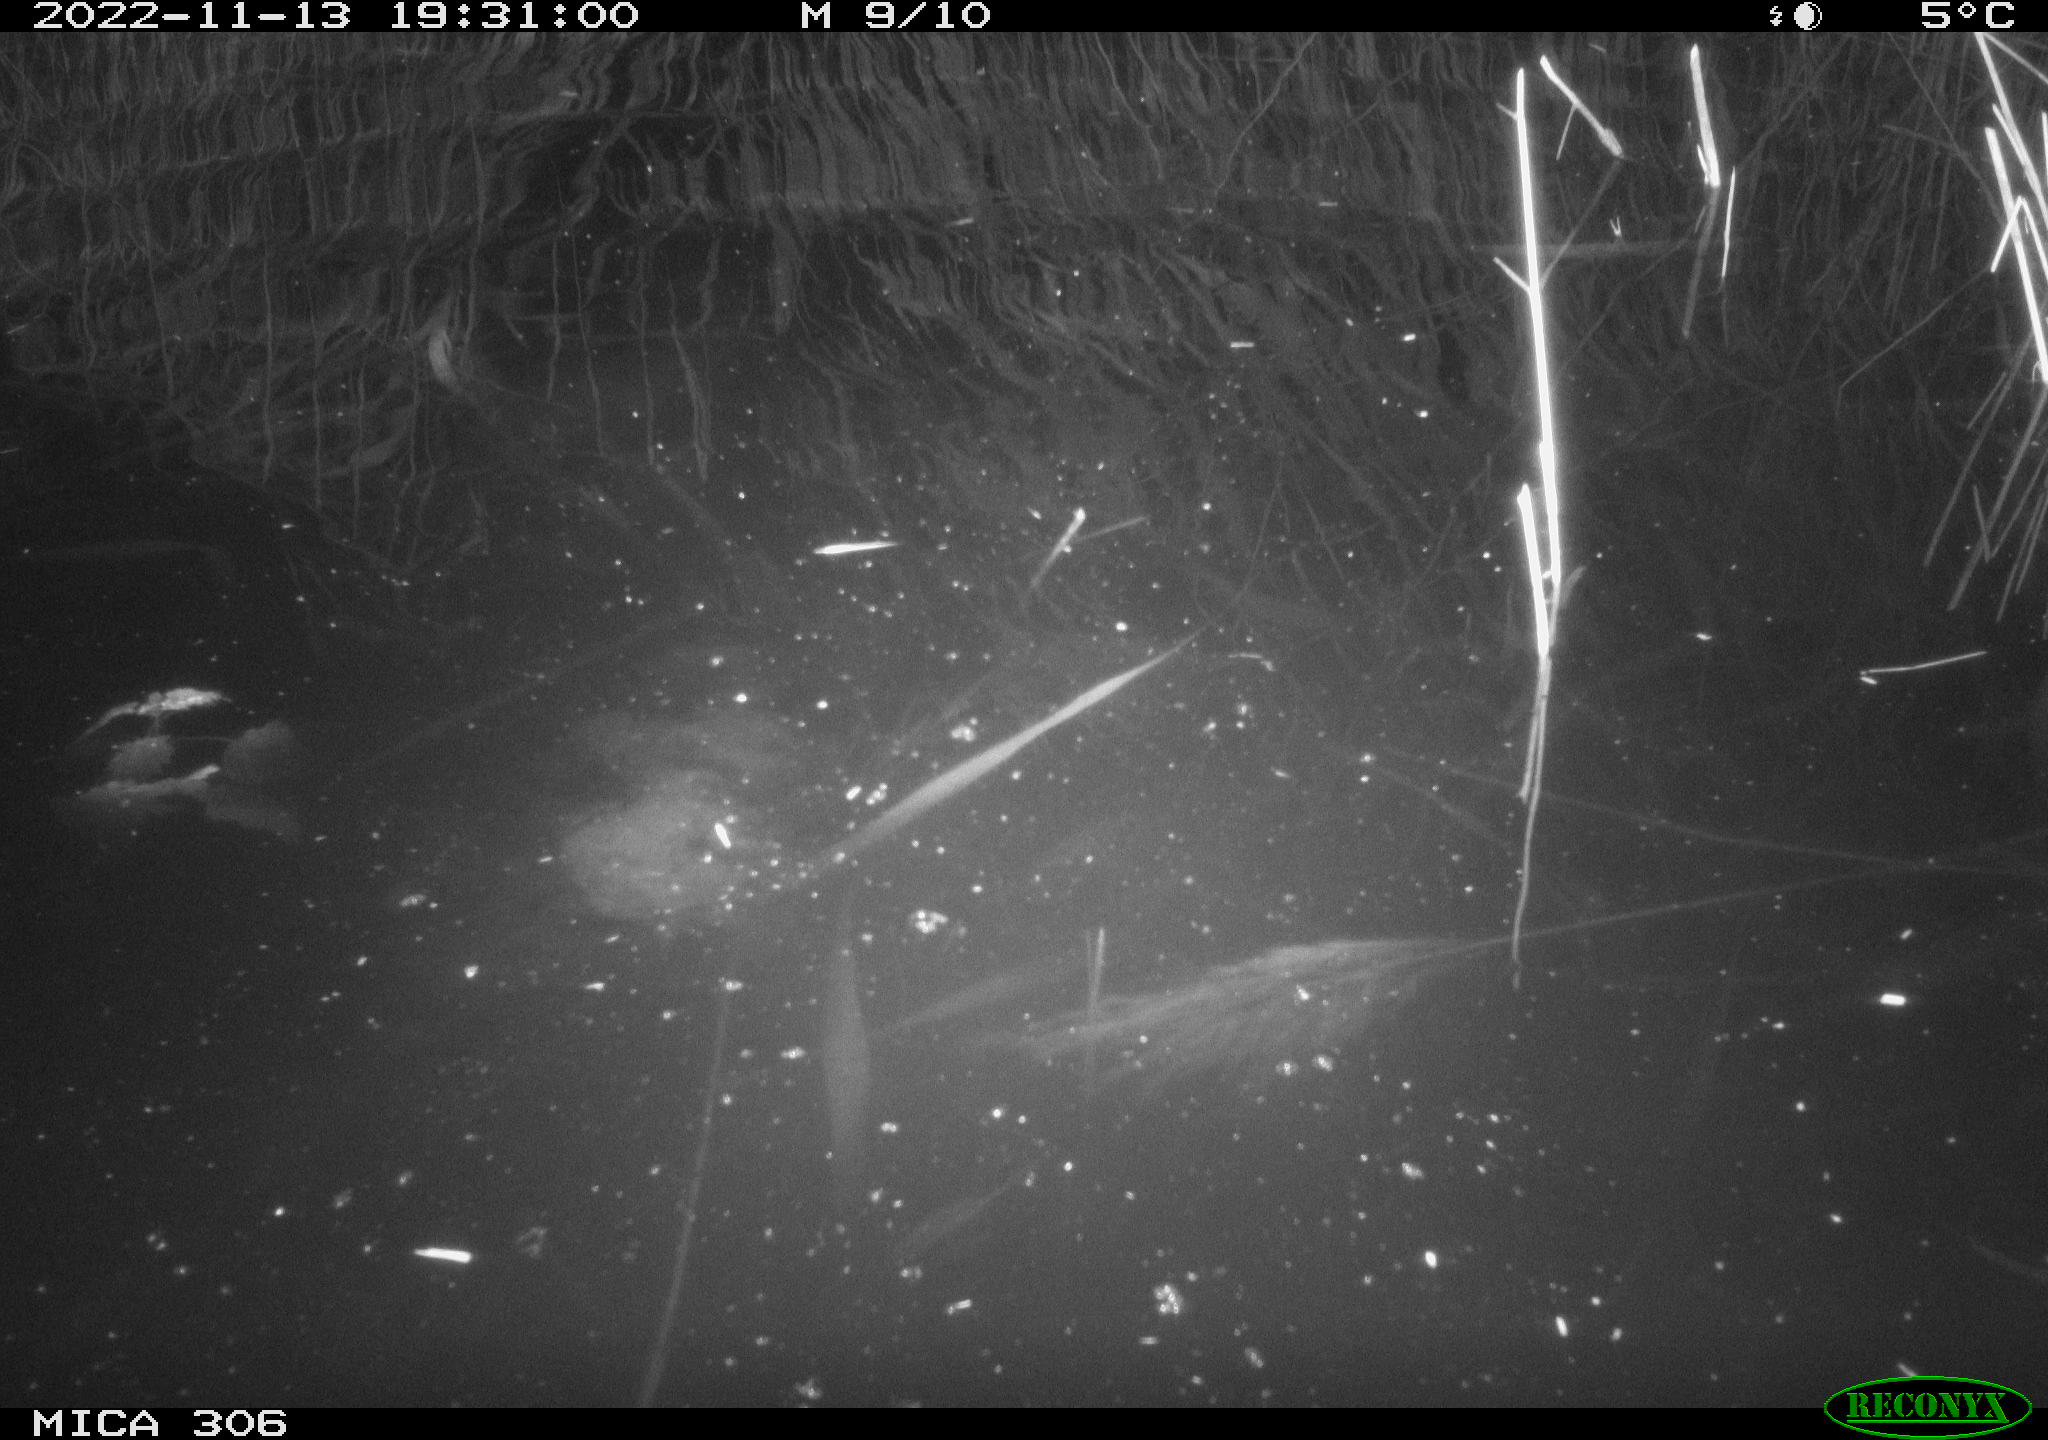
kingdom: Animalia
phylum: Chordata
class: Mammalia
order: Rodentia
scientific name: Rodentia
